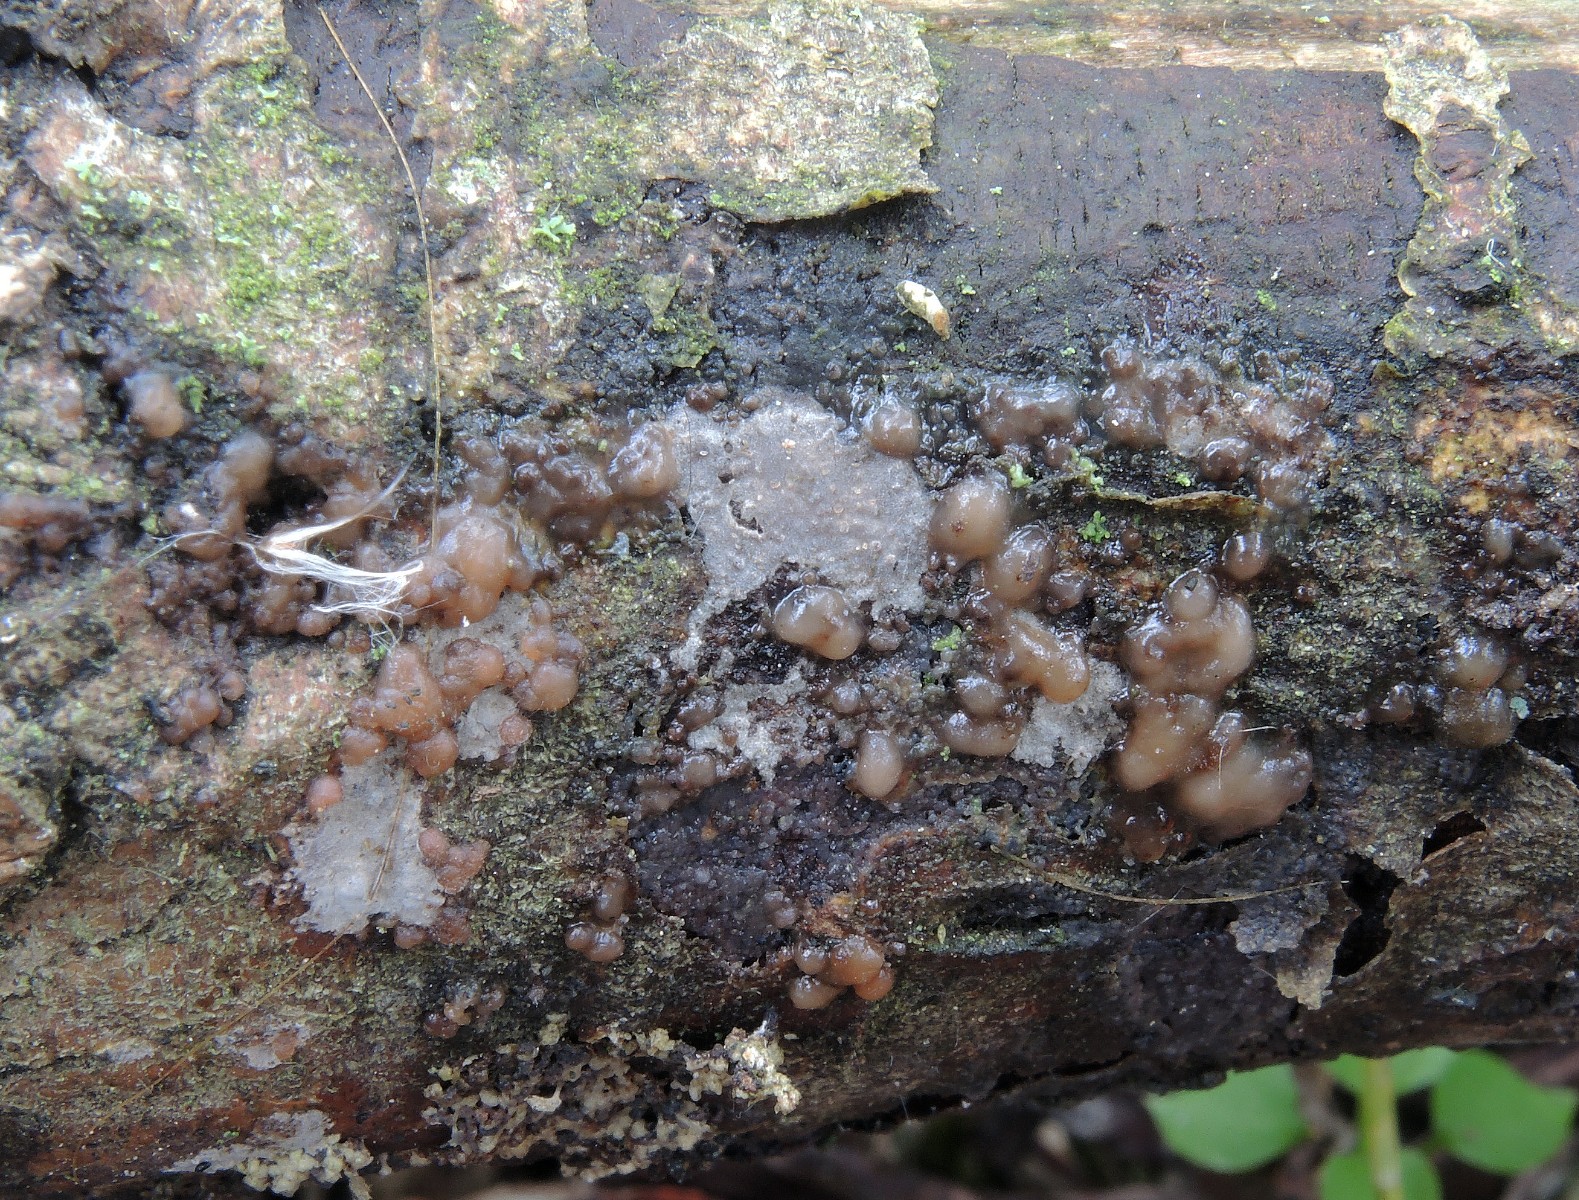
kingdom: Fungi
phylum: Basidiomycota
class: Tremellomycetes
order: Tremellales
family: Tremellaceae
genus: Tremella
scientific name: Tremella versicolor
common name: voksskind-bævresvamp
